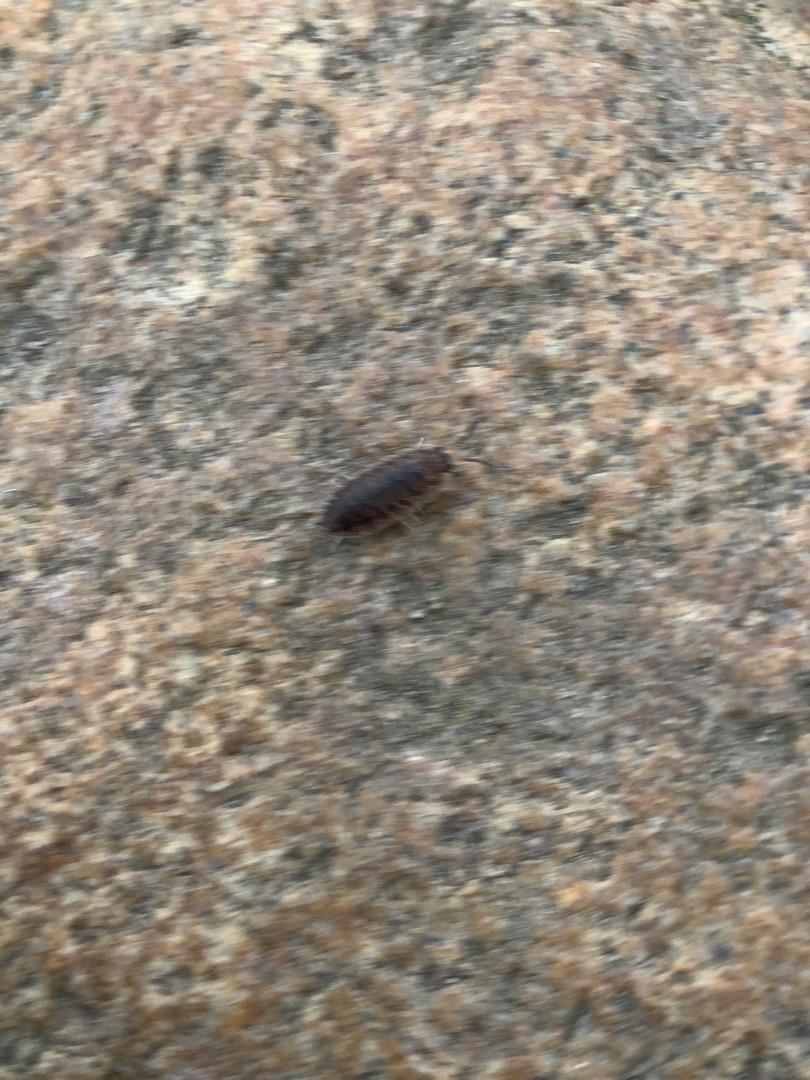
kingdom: Animalia
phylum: Arthropoda
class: Malacostraca
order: Isopoda
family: Porcellionidae
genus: Porcellio
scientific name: Porcellio scaber
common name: Grå bænkebider
